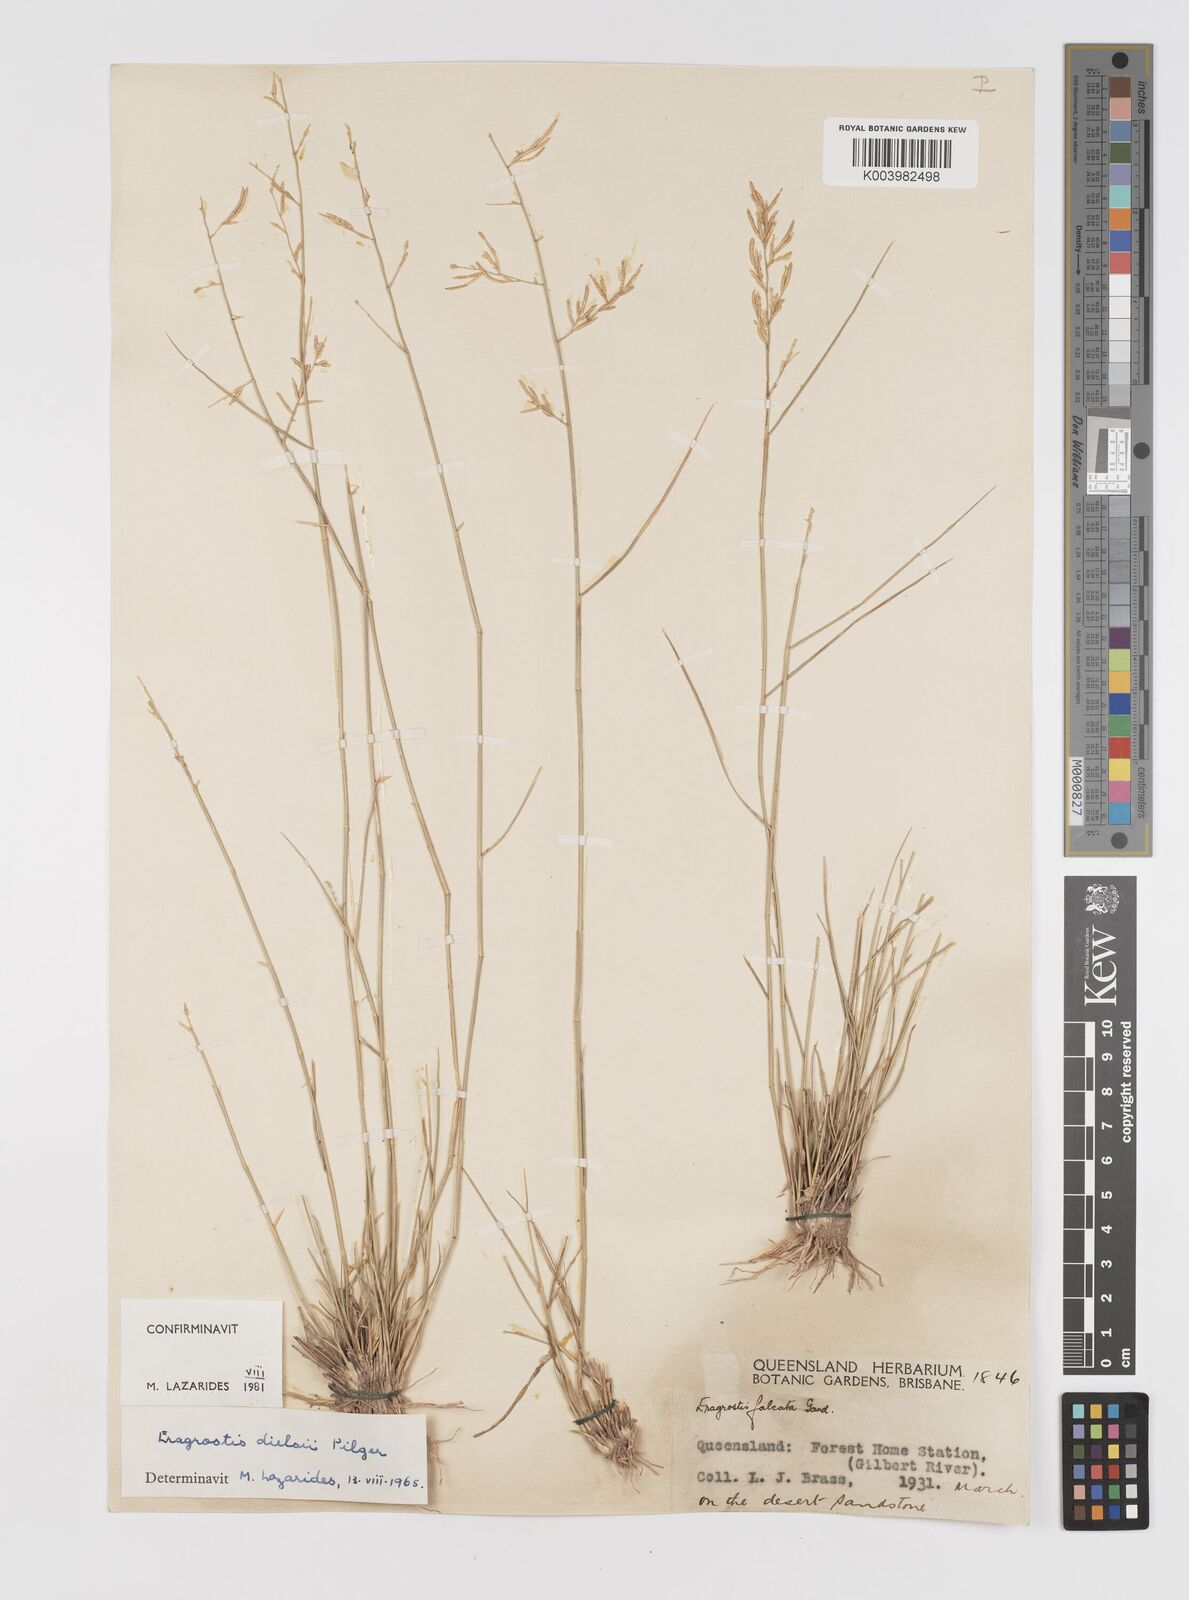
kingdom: Plantae
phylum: Tracheophyta
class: Liliopsida
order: Poales
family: Poaceae
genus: Eragrostis
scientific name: Eragrostis dielsii
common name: Lovegrass
